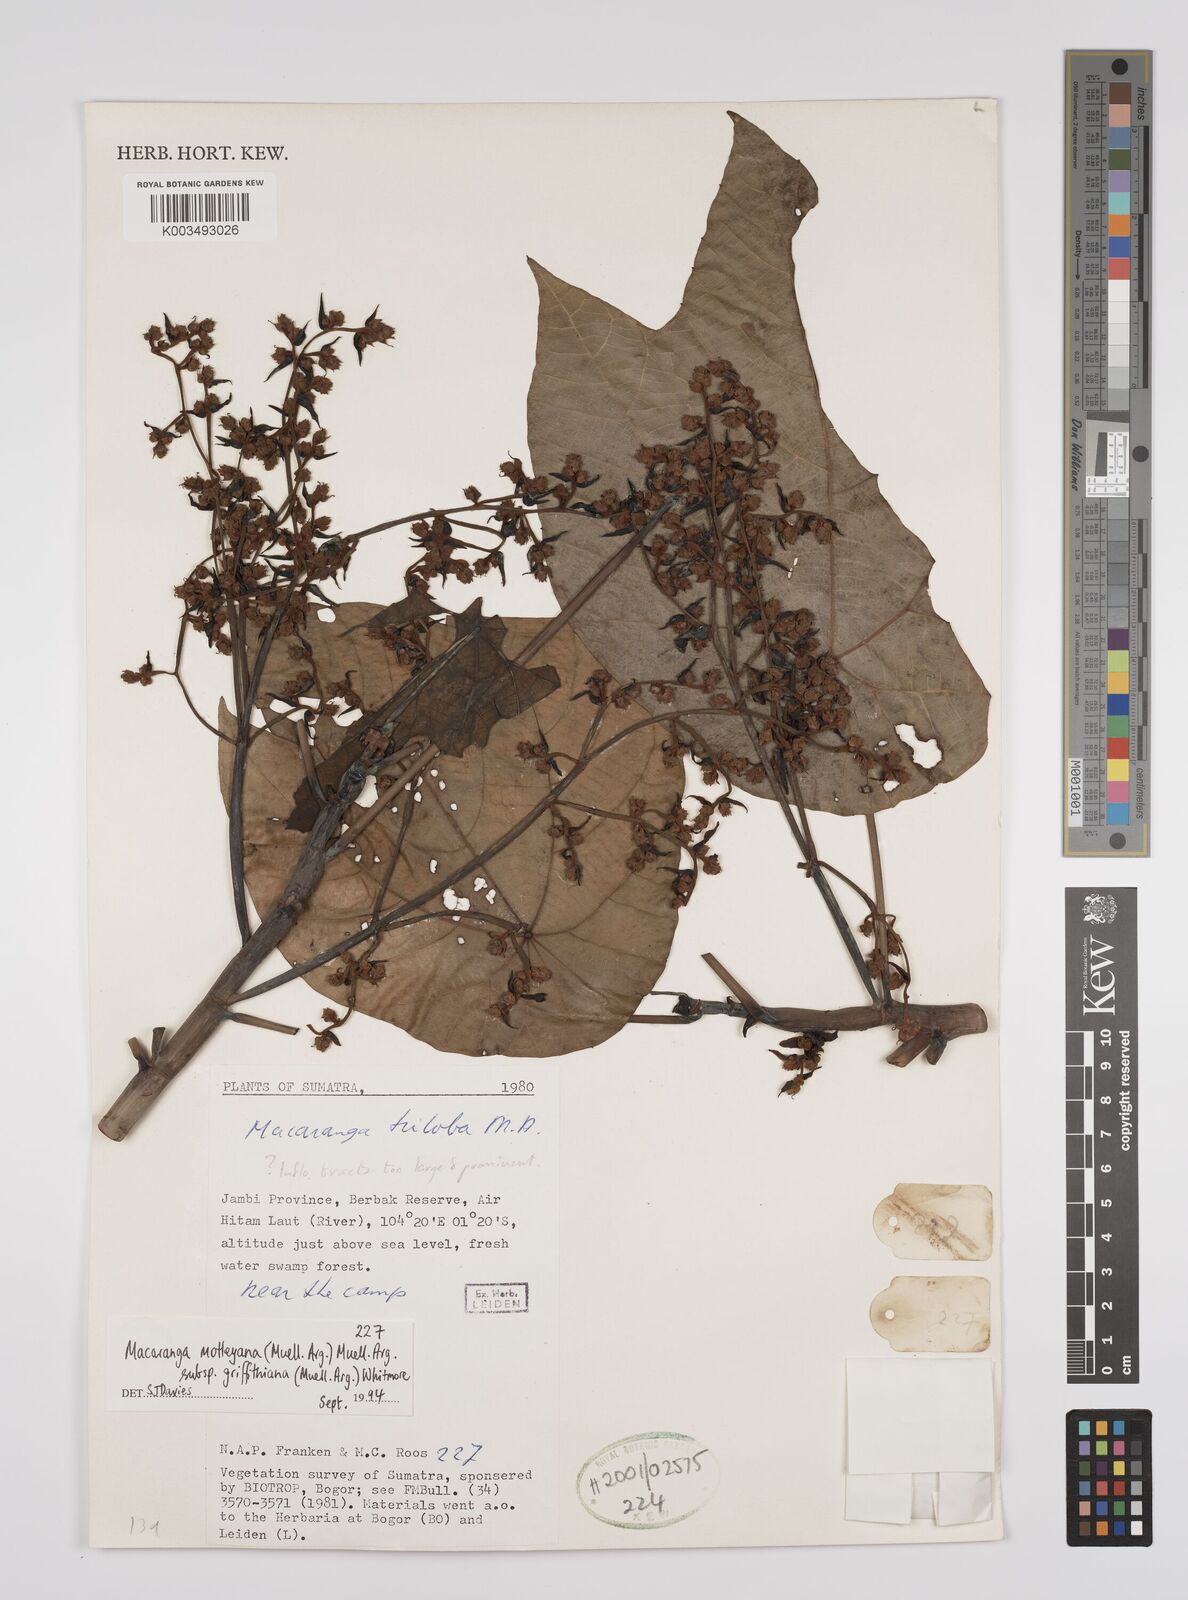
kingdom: Plantae
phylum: Tracheophyta
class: Magnoliopsida
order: Malpighiales
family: Euphorbiaceae
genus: Macaranga
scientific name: Macaranga griffithiana
